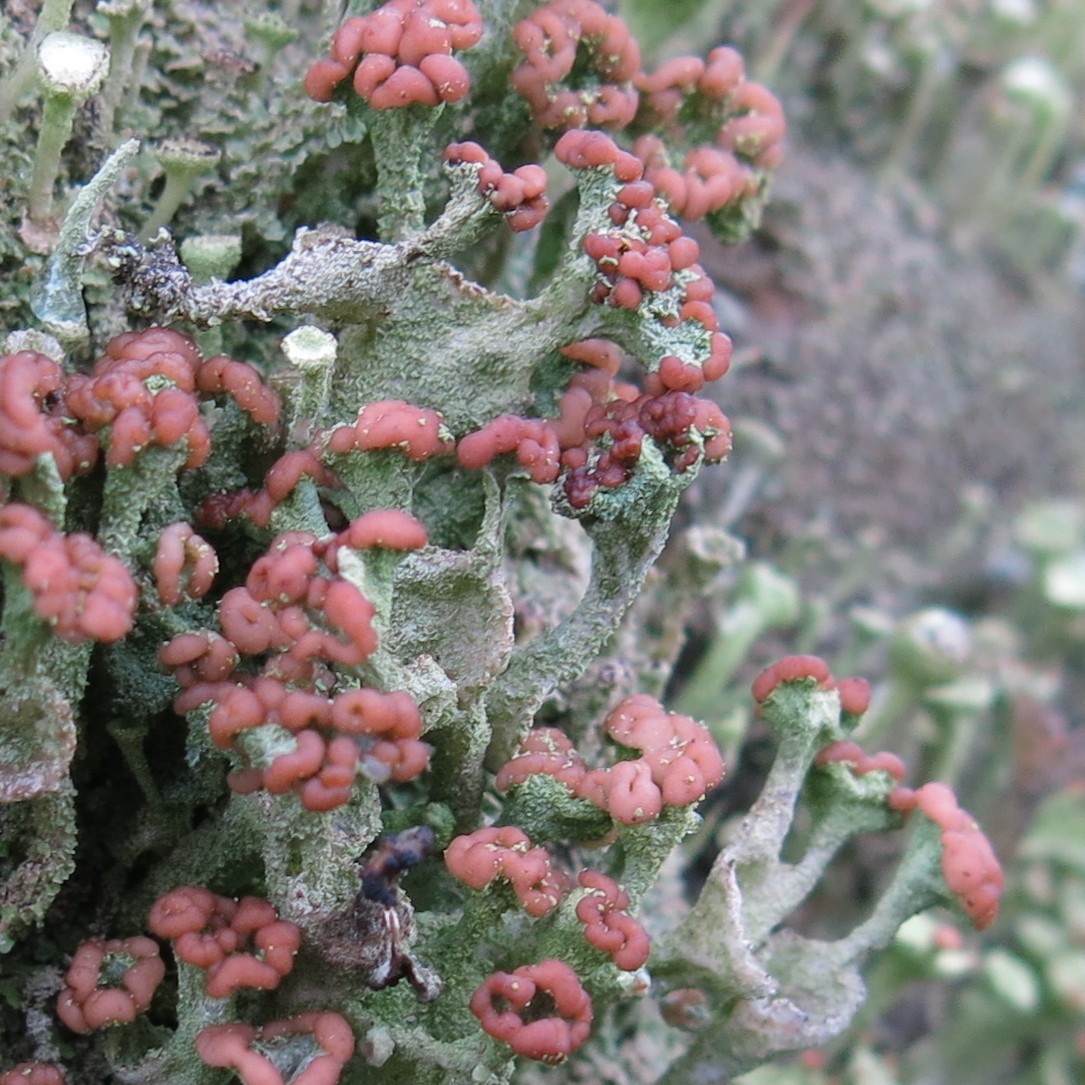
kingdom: Fungi
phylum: Ascomycota
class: Lecanoromycetes
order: Lecanorales
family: Cladoniaceae
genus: Cladonia
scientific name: Cladonia
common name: brungrøn bægerlav
